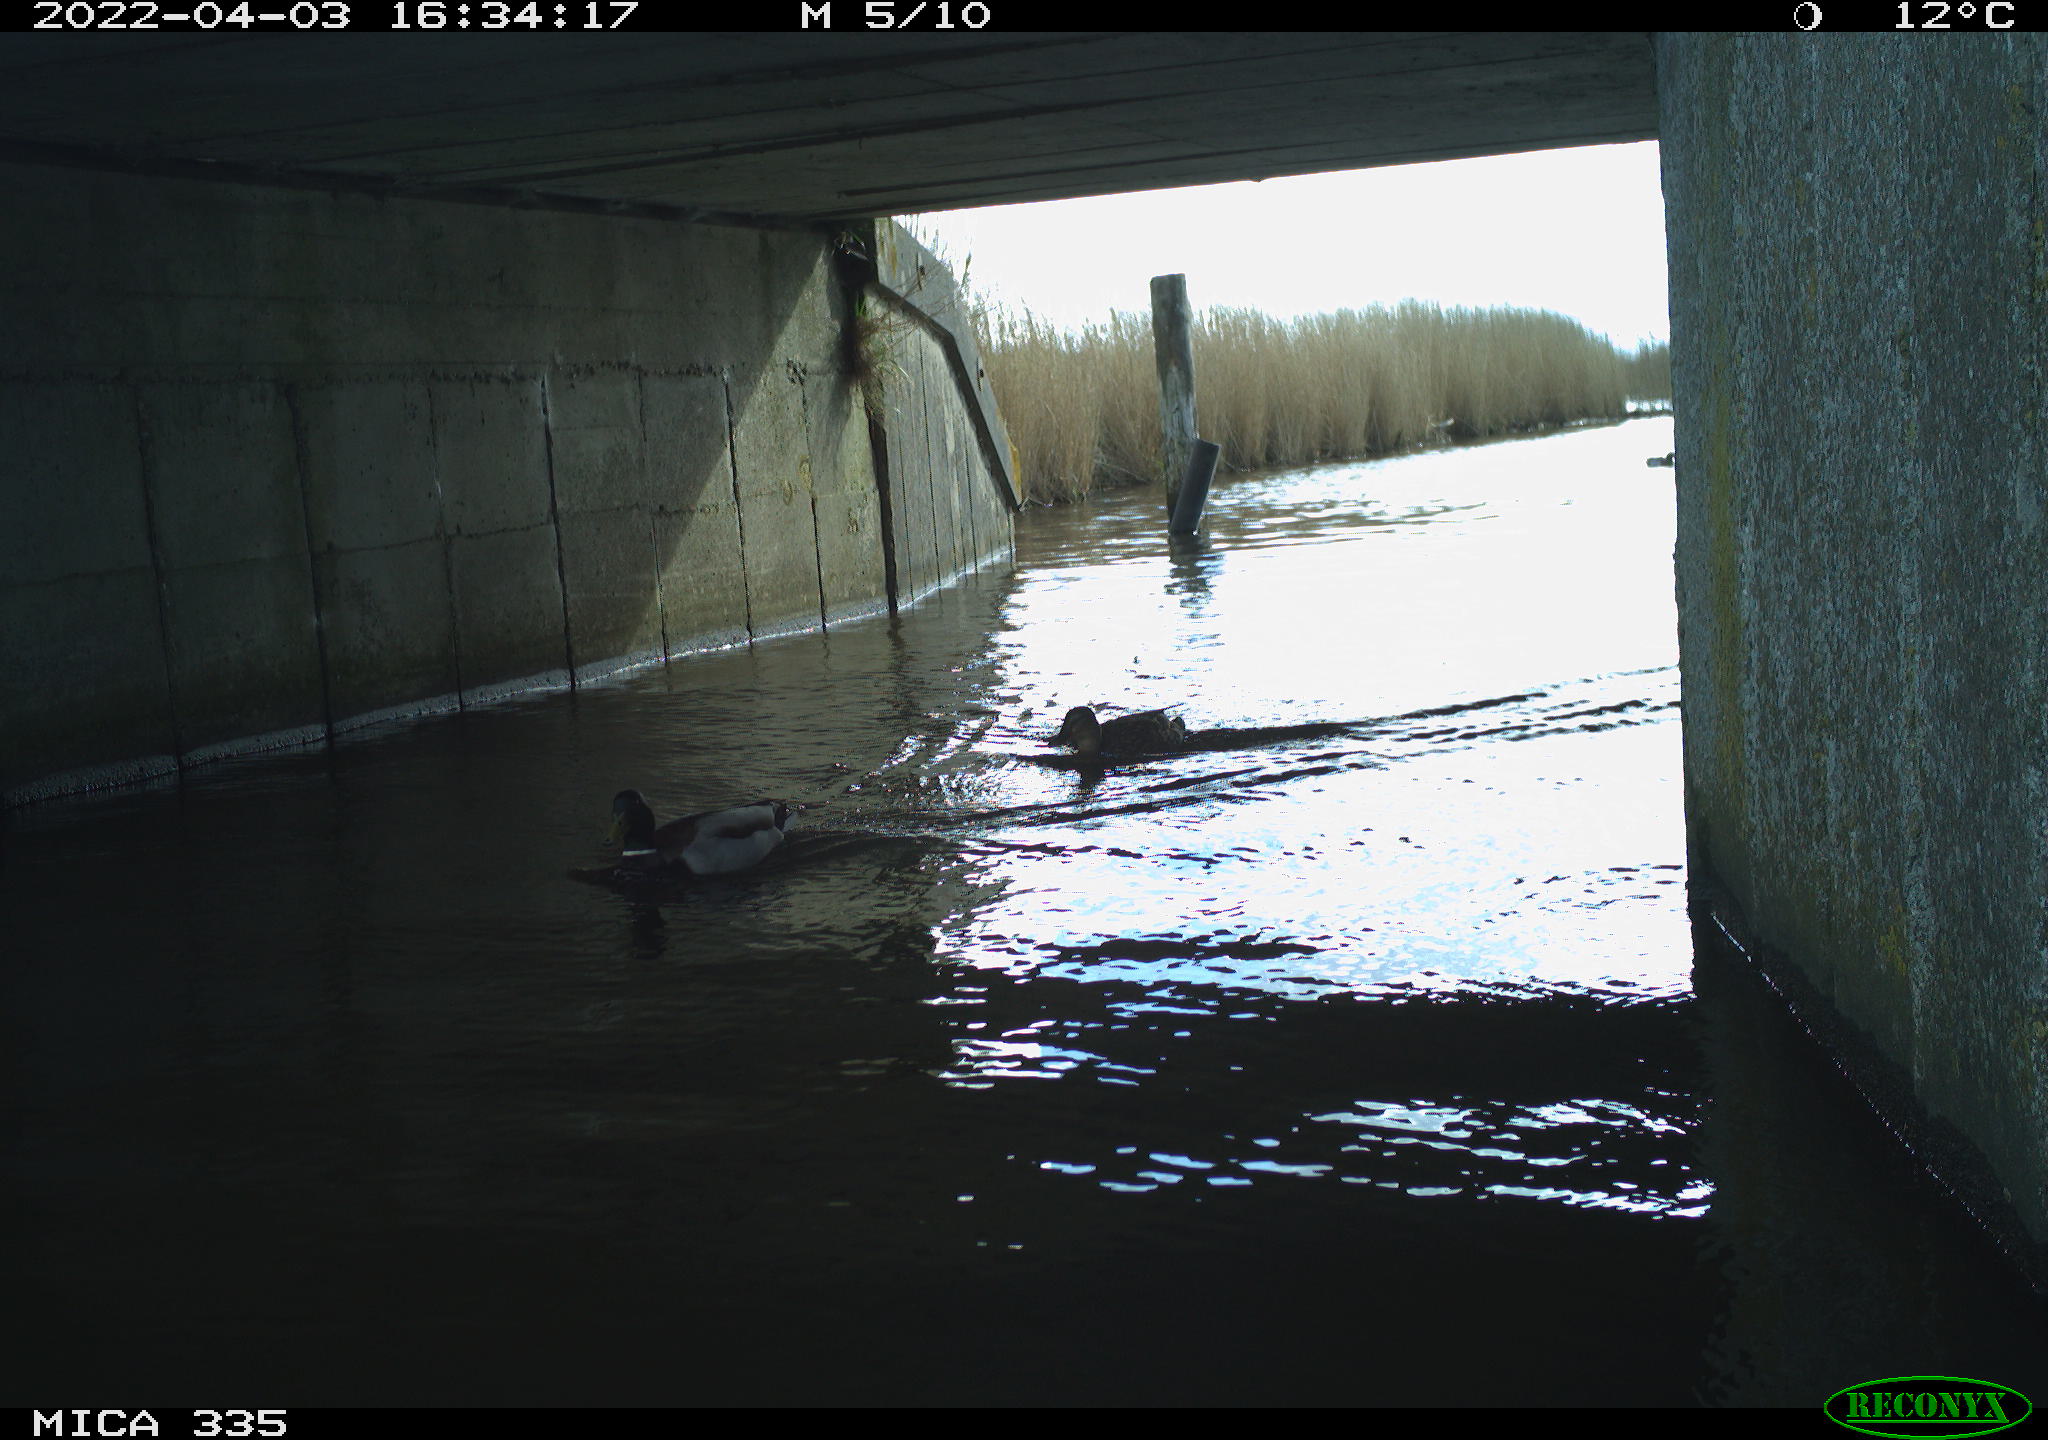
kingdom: Animalia
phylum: Chordata
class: Aves
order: Anseriformes
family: Anatidae
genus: Anas
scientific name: Anas platyrhynchos
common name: Mallard
